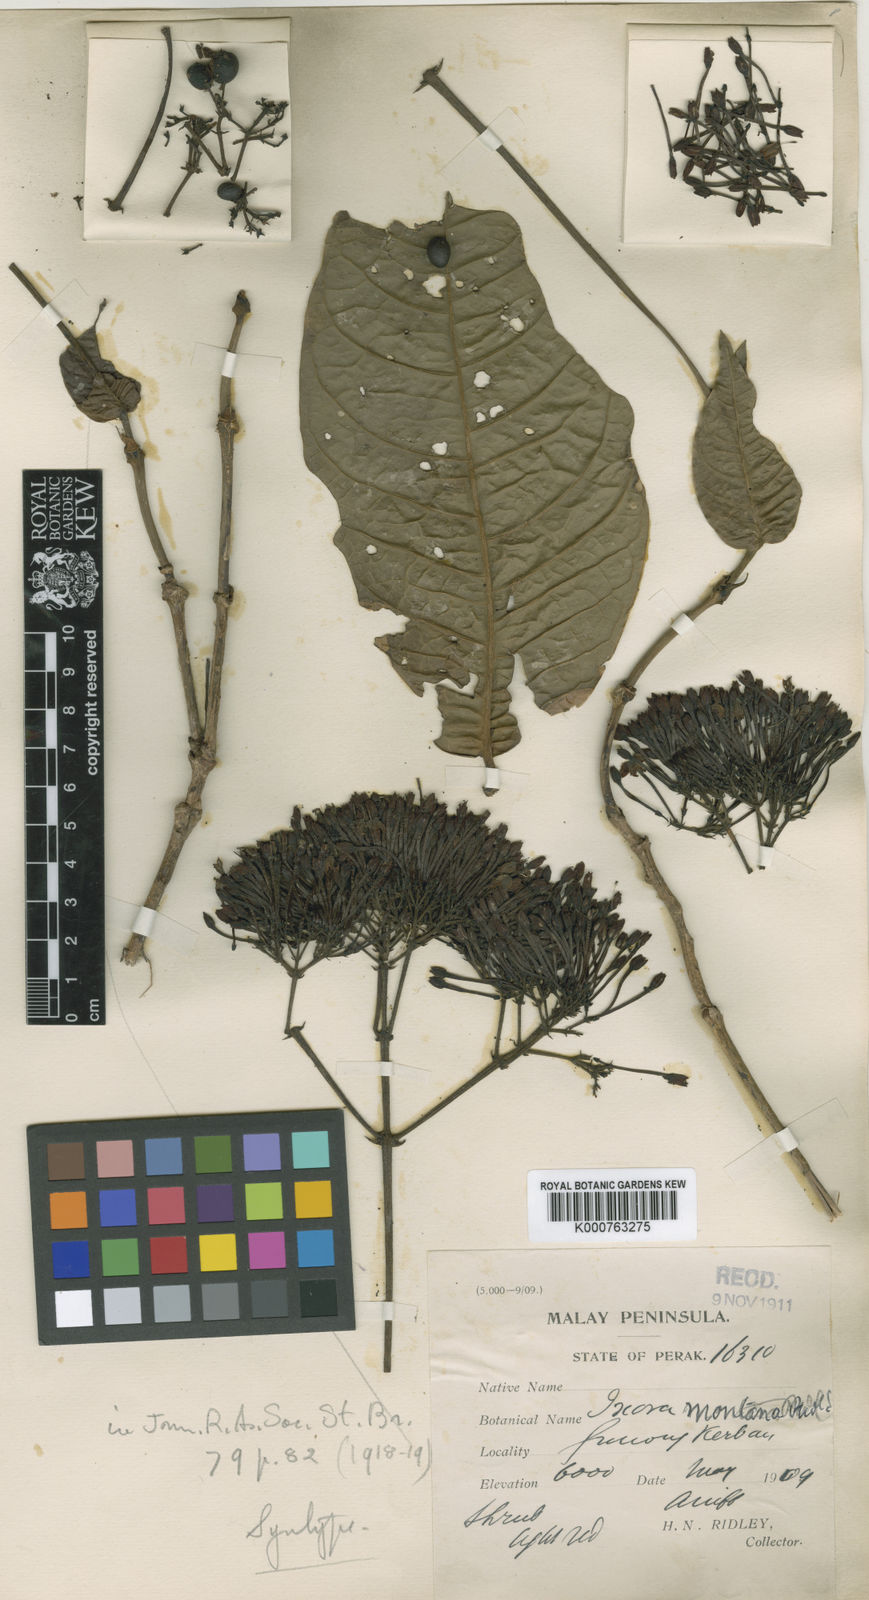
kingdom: Plantae
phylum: Tracheophyta
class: Magnoliopsida
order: Gentianales
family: Rubiaceae
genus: Ixora
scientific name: Ixora pendula
